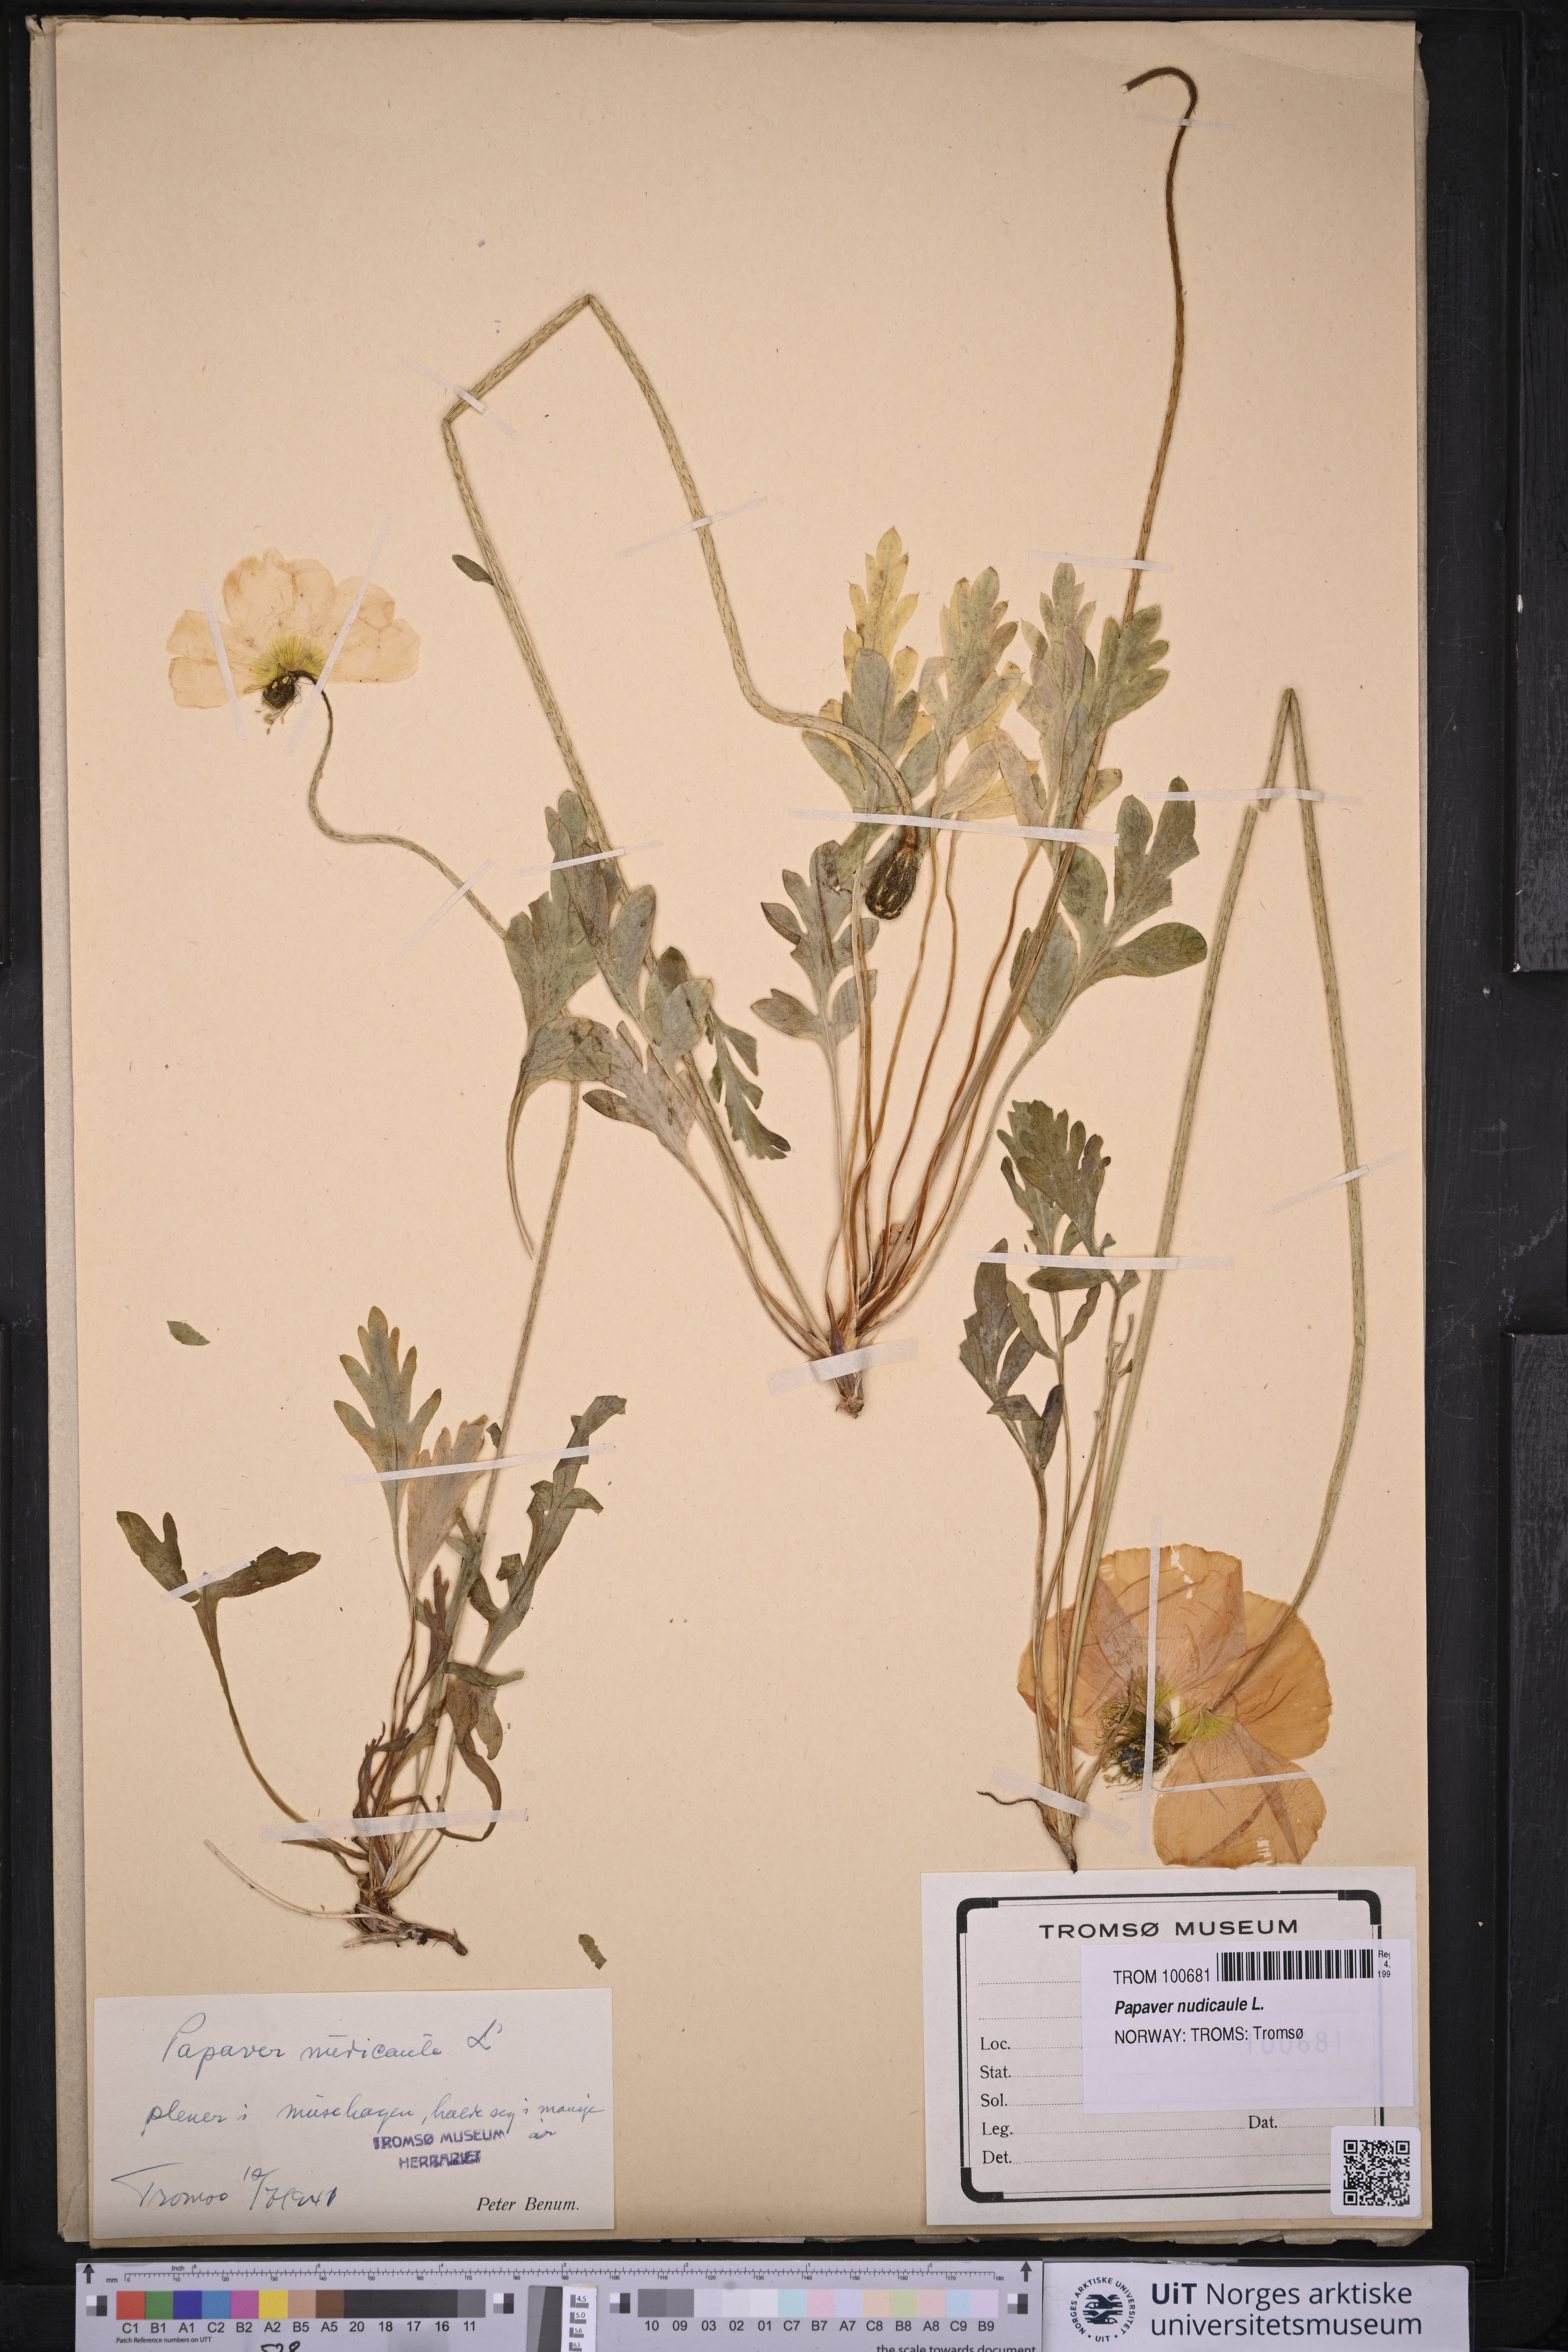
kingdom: Plantae
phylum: Tracheophyta
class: Magnoliopsida
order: Ranunculales
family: Papaveraceae
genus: Papaver
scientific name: Papaver nudicaule
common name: Arctic poppy
